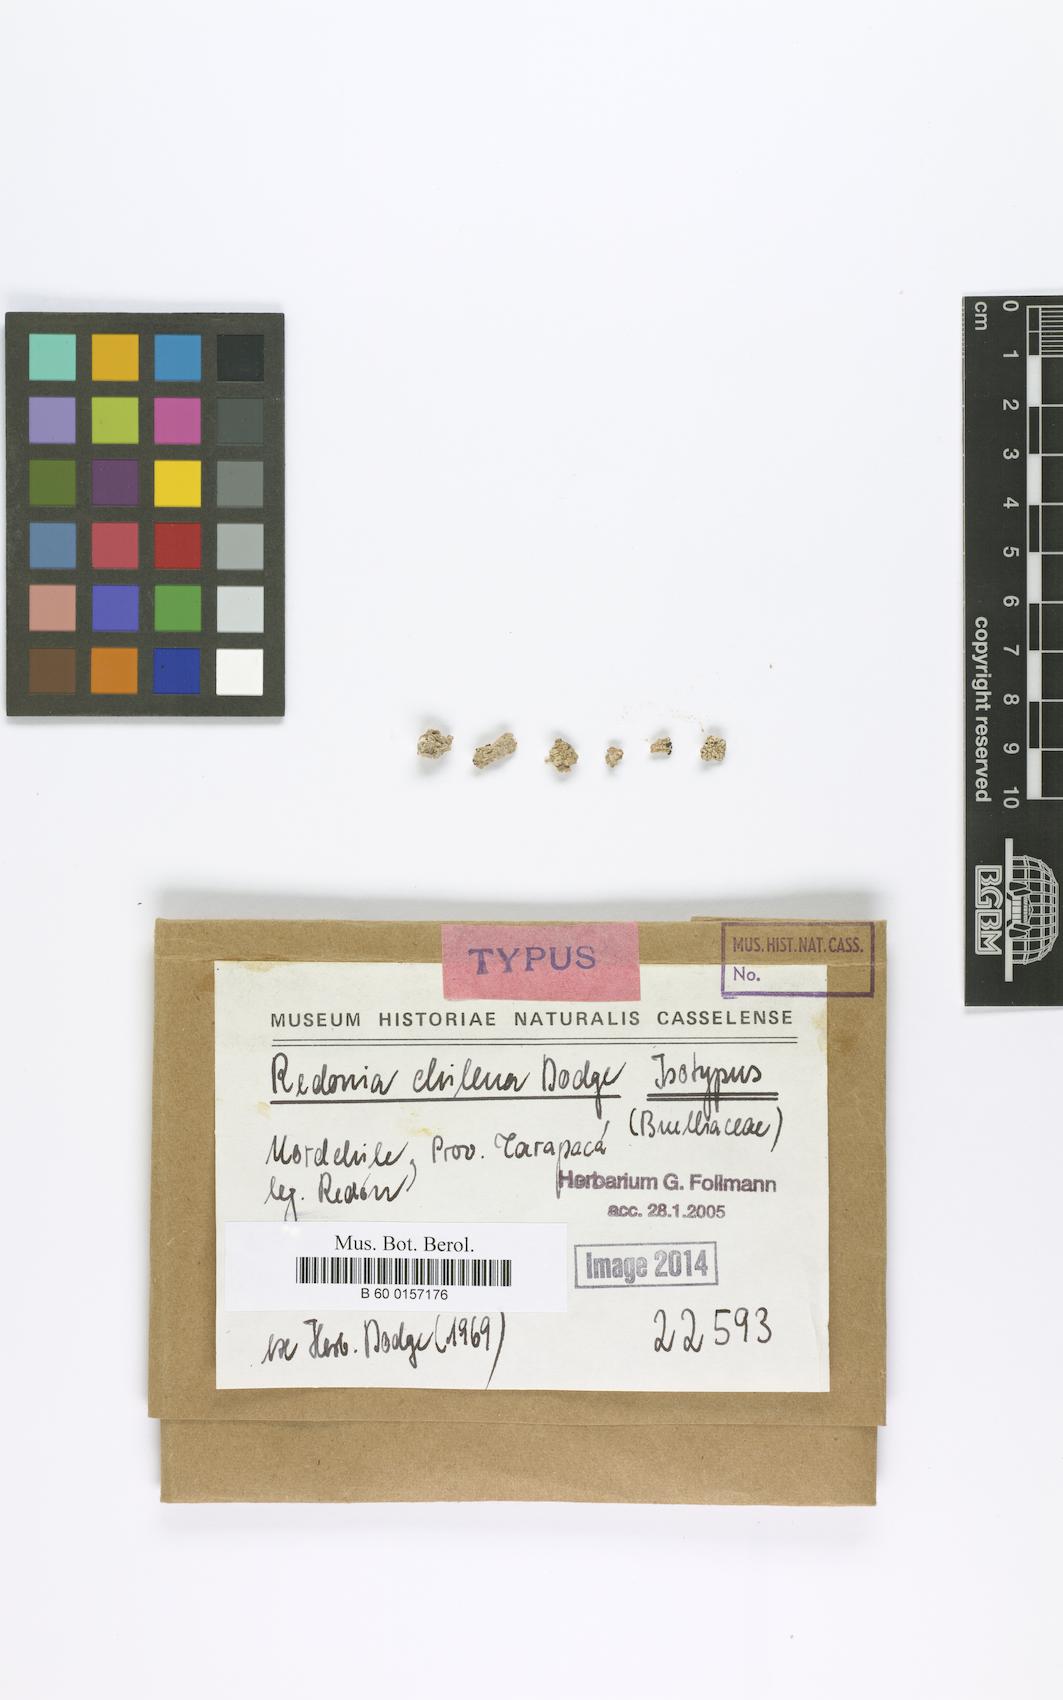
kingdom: Fungi
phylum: Ascomycota
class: Lecanoromycetes
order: Caliciales
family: Caliciaceae
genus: Redonia
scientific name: Redonia chilena
